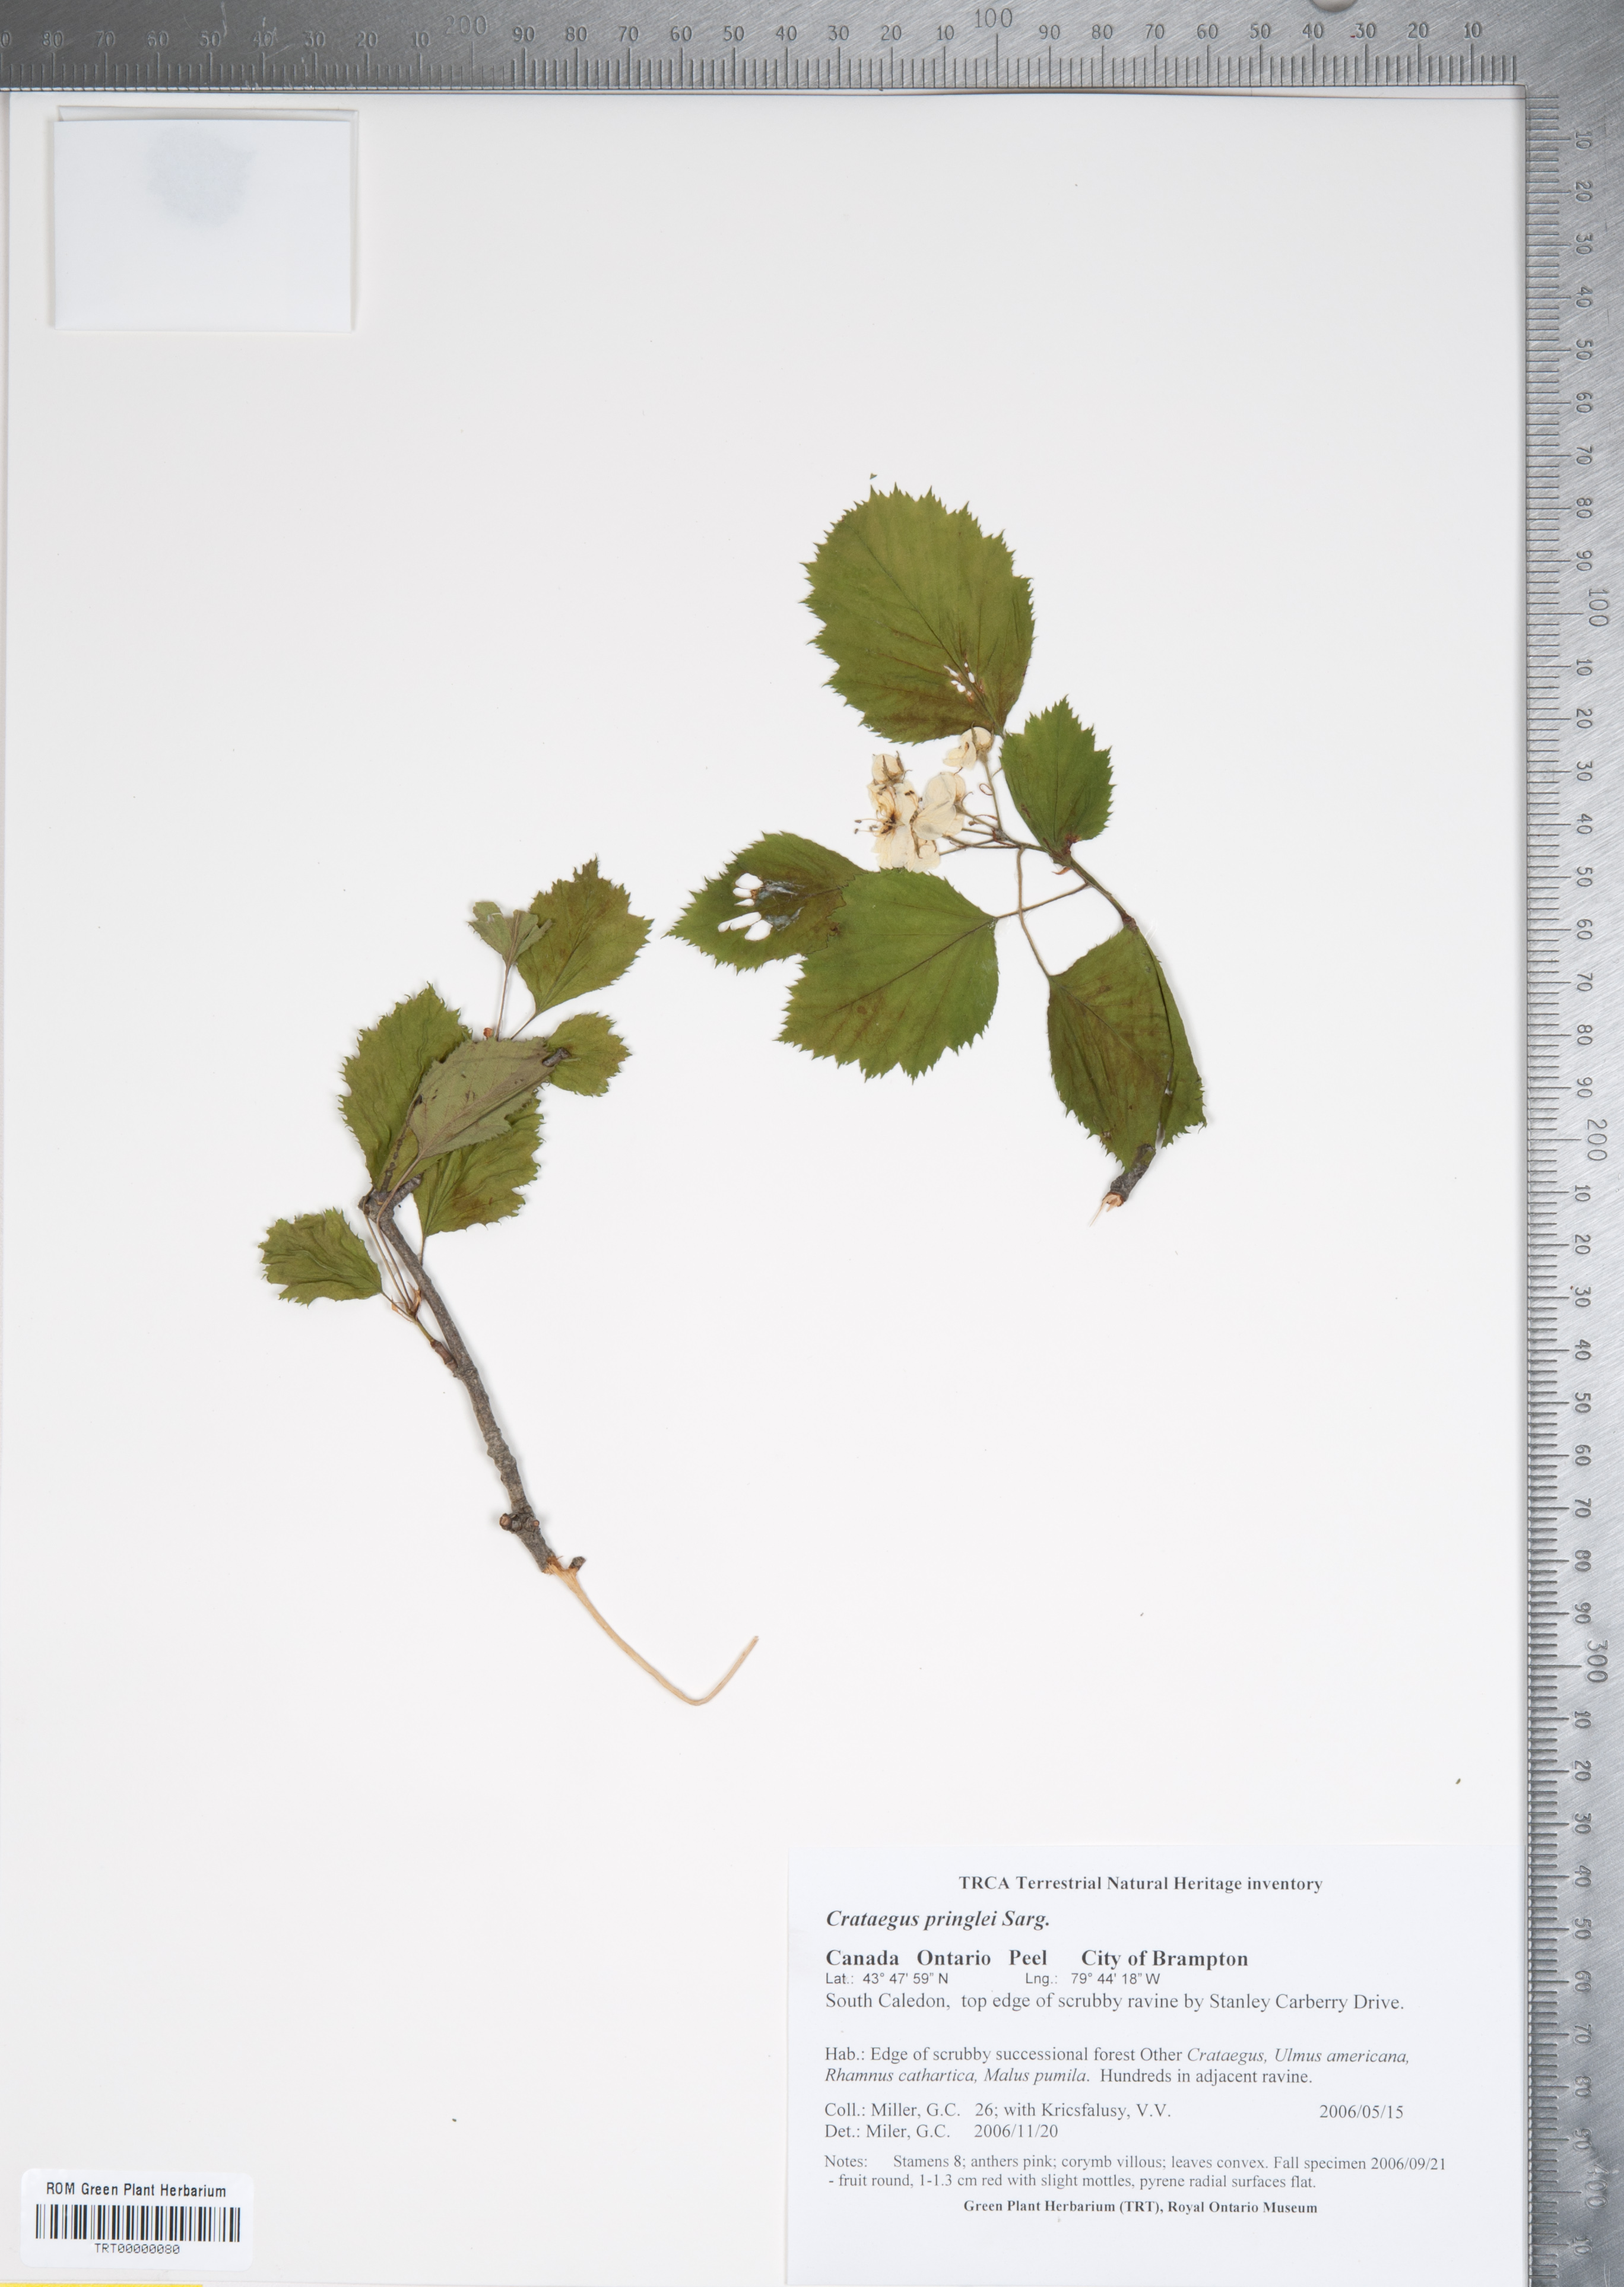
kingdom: Plantae
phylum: Tracheophyta
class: Magnoliopsida
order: Rosales
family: Rosaceae
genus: Crataegus
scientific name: Crataegus coccinea
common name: Scarlet hawthorn
